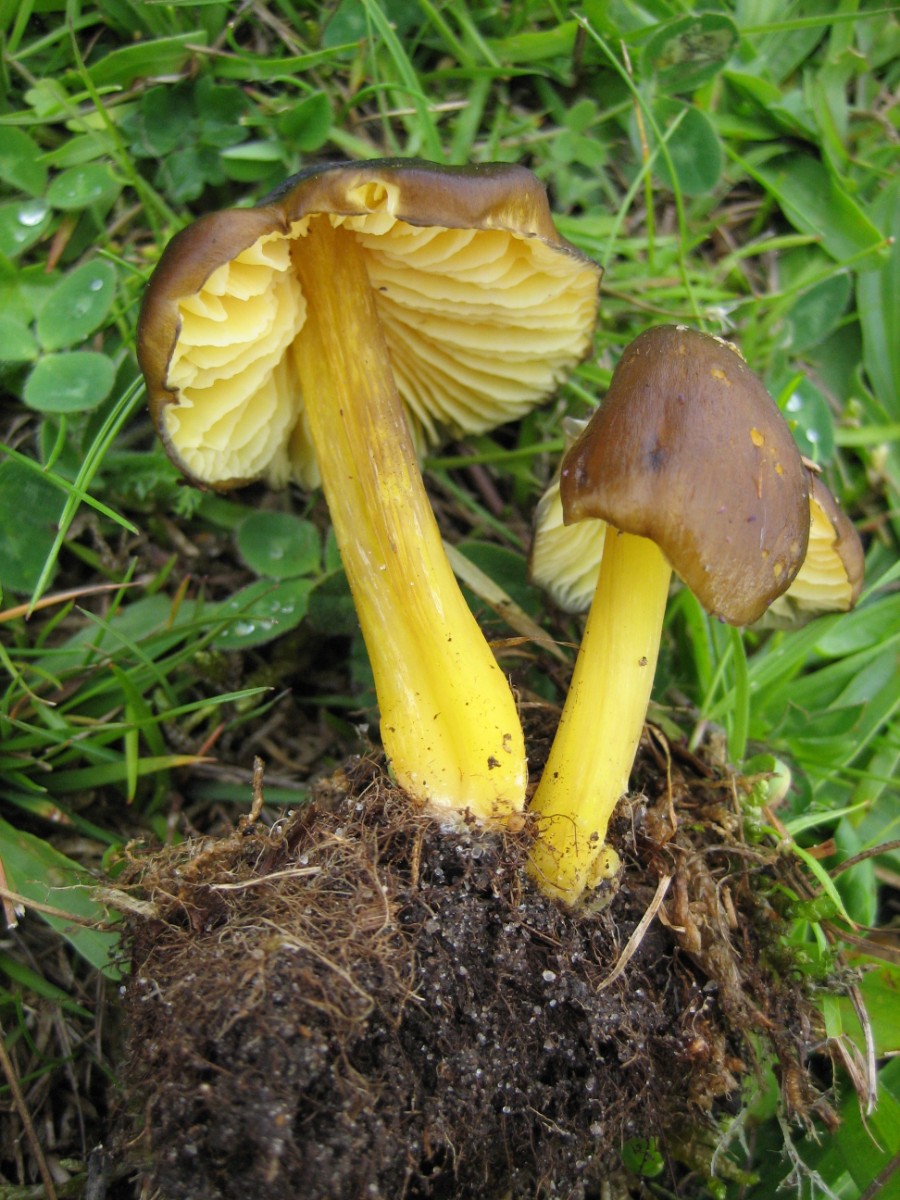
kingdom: Fungi
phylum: Basidiomycota
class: Agaricomycetes
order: Agaricales
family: Hygrophoraceae
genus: Hygrocybe
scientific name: Hygrocybe spadicea
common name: daddelbrun vokshat
